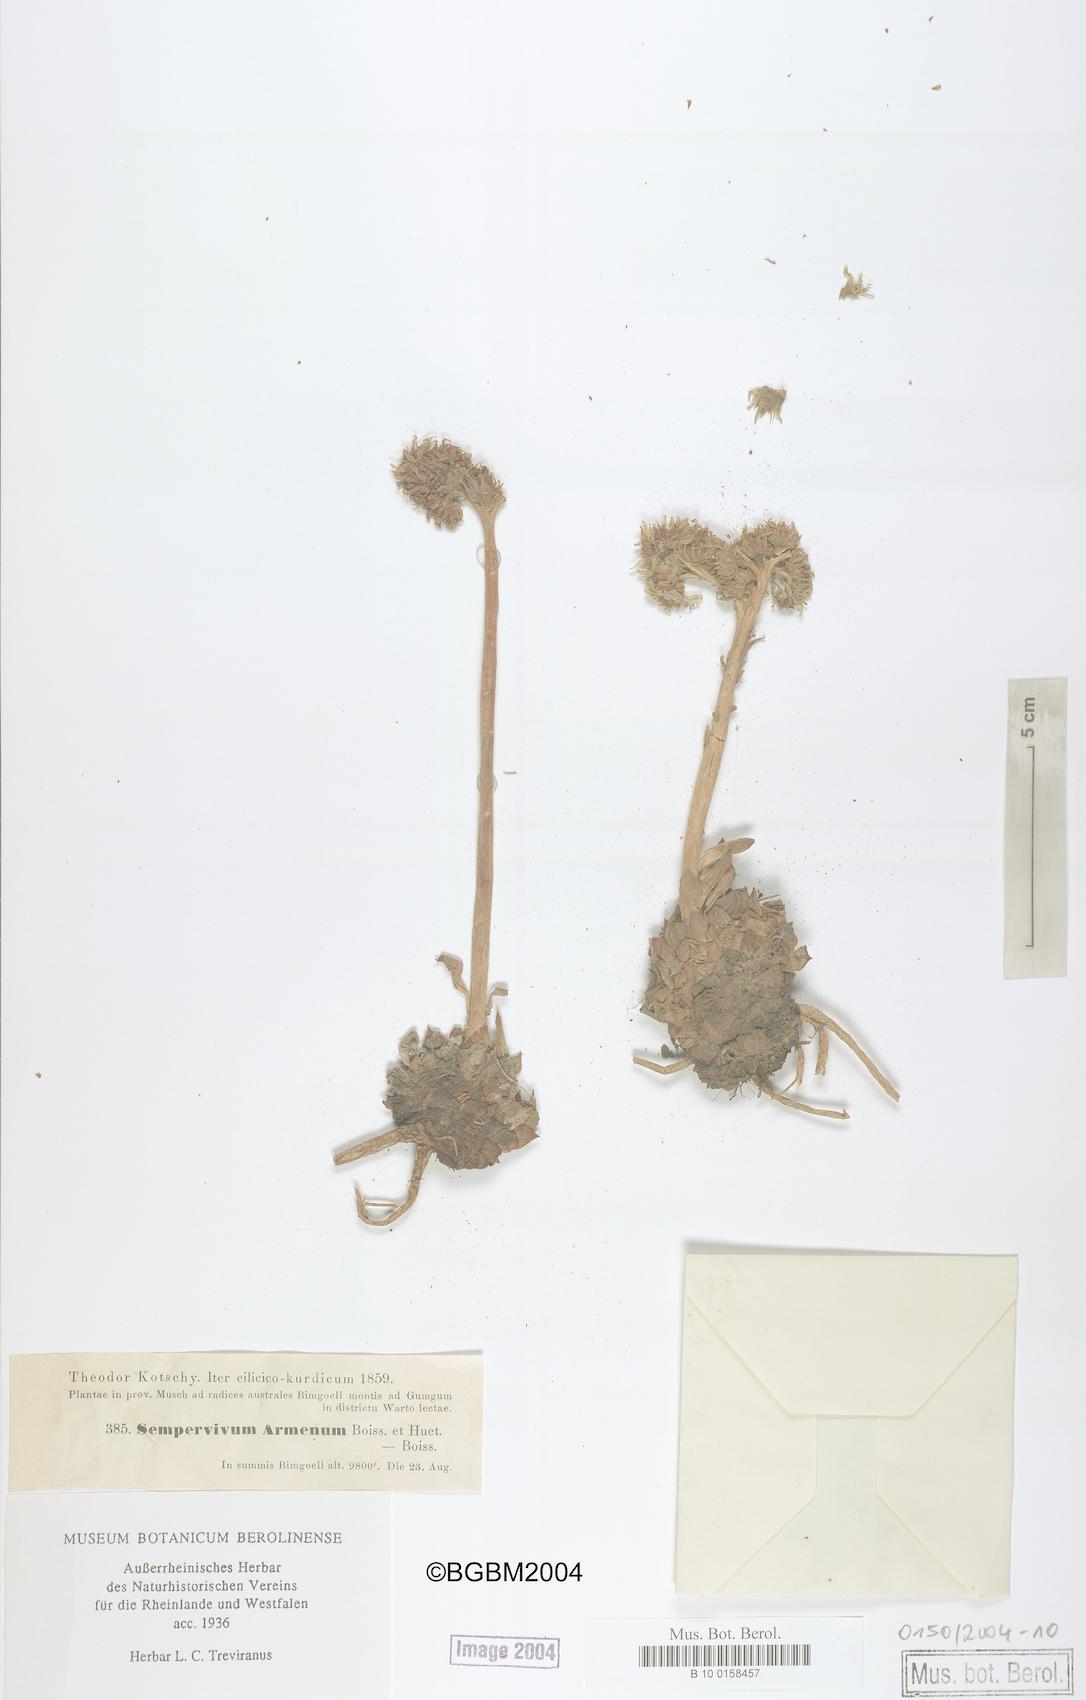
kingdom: Plantae
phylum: Tracheophyta
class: Magnoliopsida
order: Saxifragales
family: Crassulaceae
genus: Sempervivum
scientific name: Sempervivum armenum
